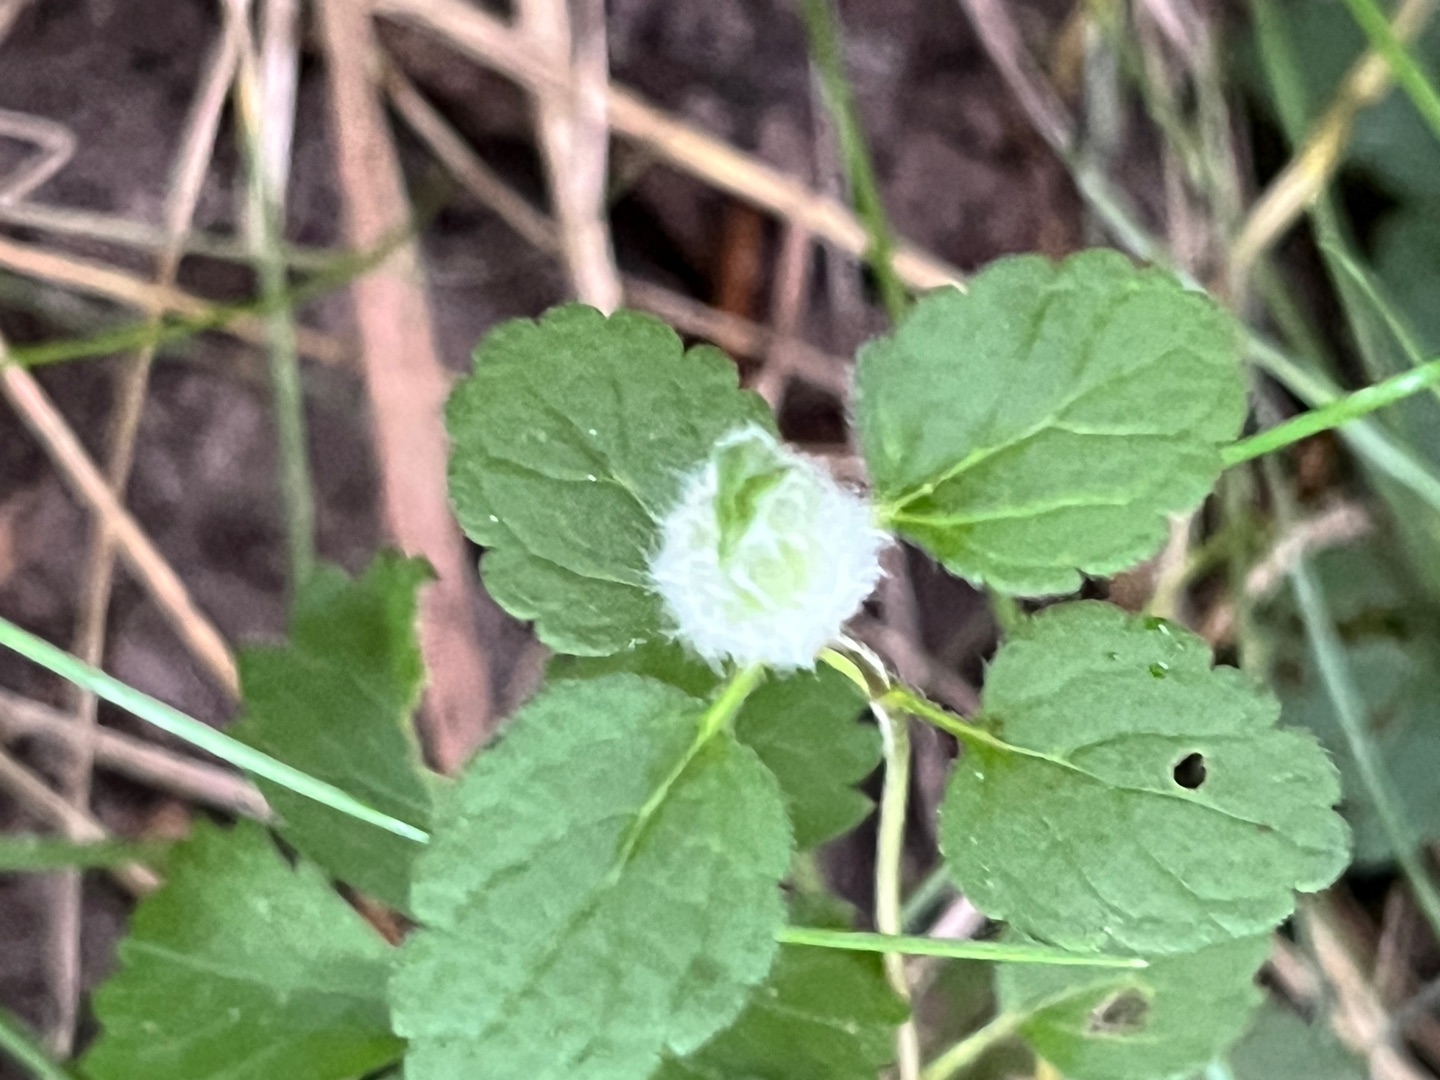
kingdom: Animalia
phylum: Arthropoda
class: Insecta
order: Diptera
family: Cecidomyiidae
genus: Jaapiella
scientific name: Jaapiella veronicae
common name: Ærenprisgalmyg
